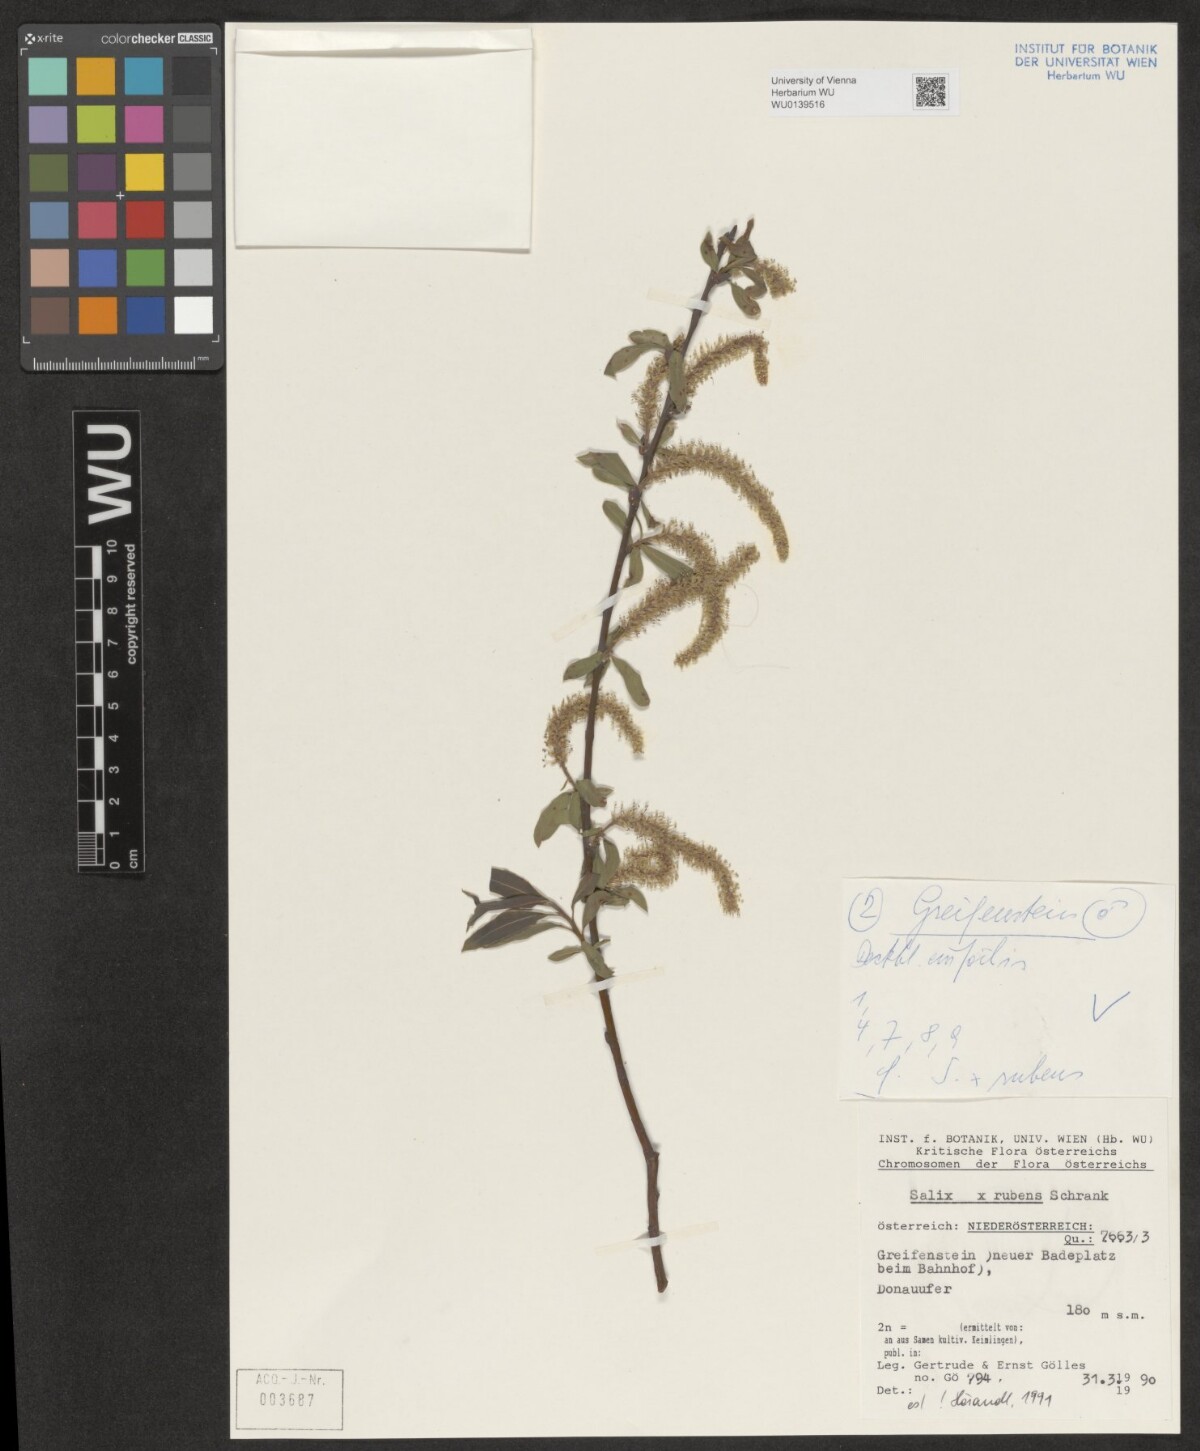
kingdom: Plantae
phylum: Tracheophyta
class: Magnoliopsida
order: Malpighiales
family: Salicaceae
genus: Salix
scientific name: Salix rubens
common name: Hybrid crack willow
